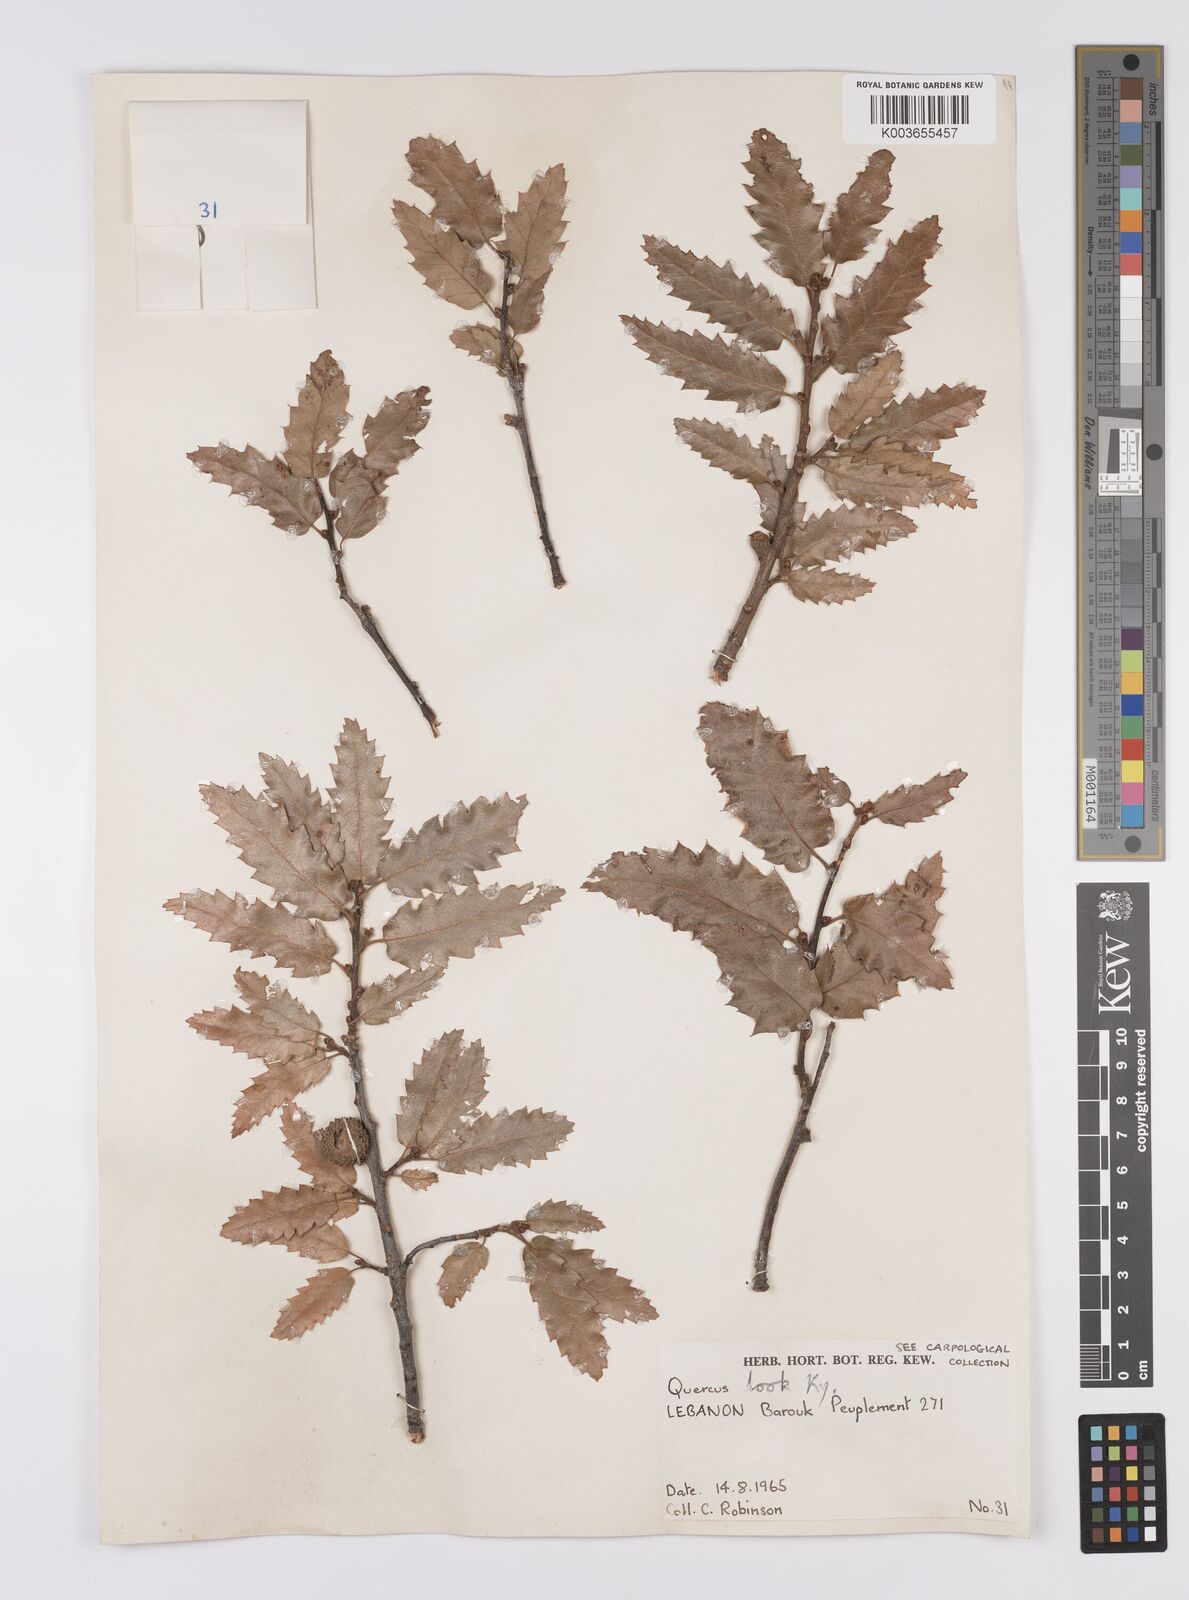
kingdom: Plantae
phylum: Tracheophyta
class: Magnoliopsida
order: Fagales
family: Fagaceae
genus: Quercus
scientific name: Quercus look
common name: Look oak
